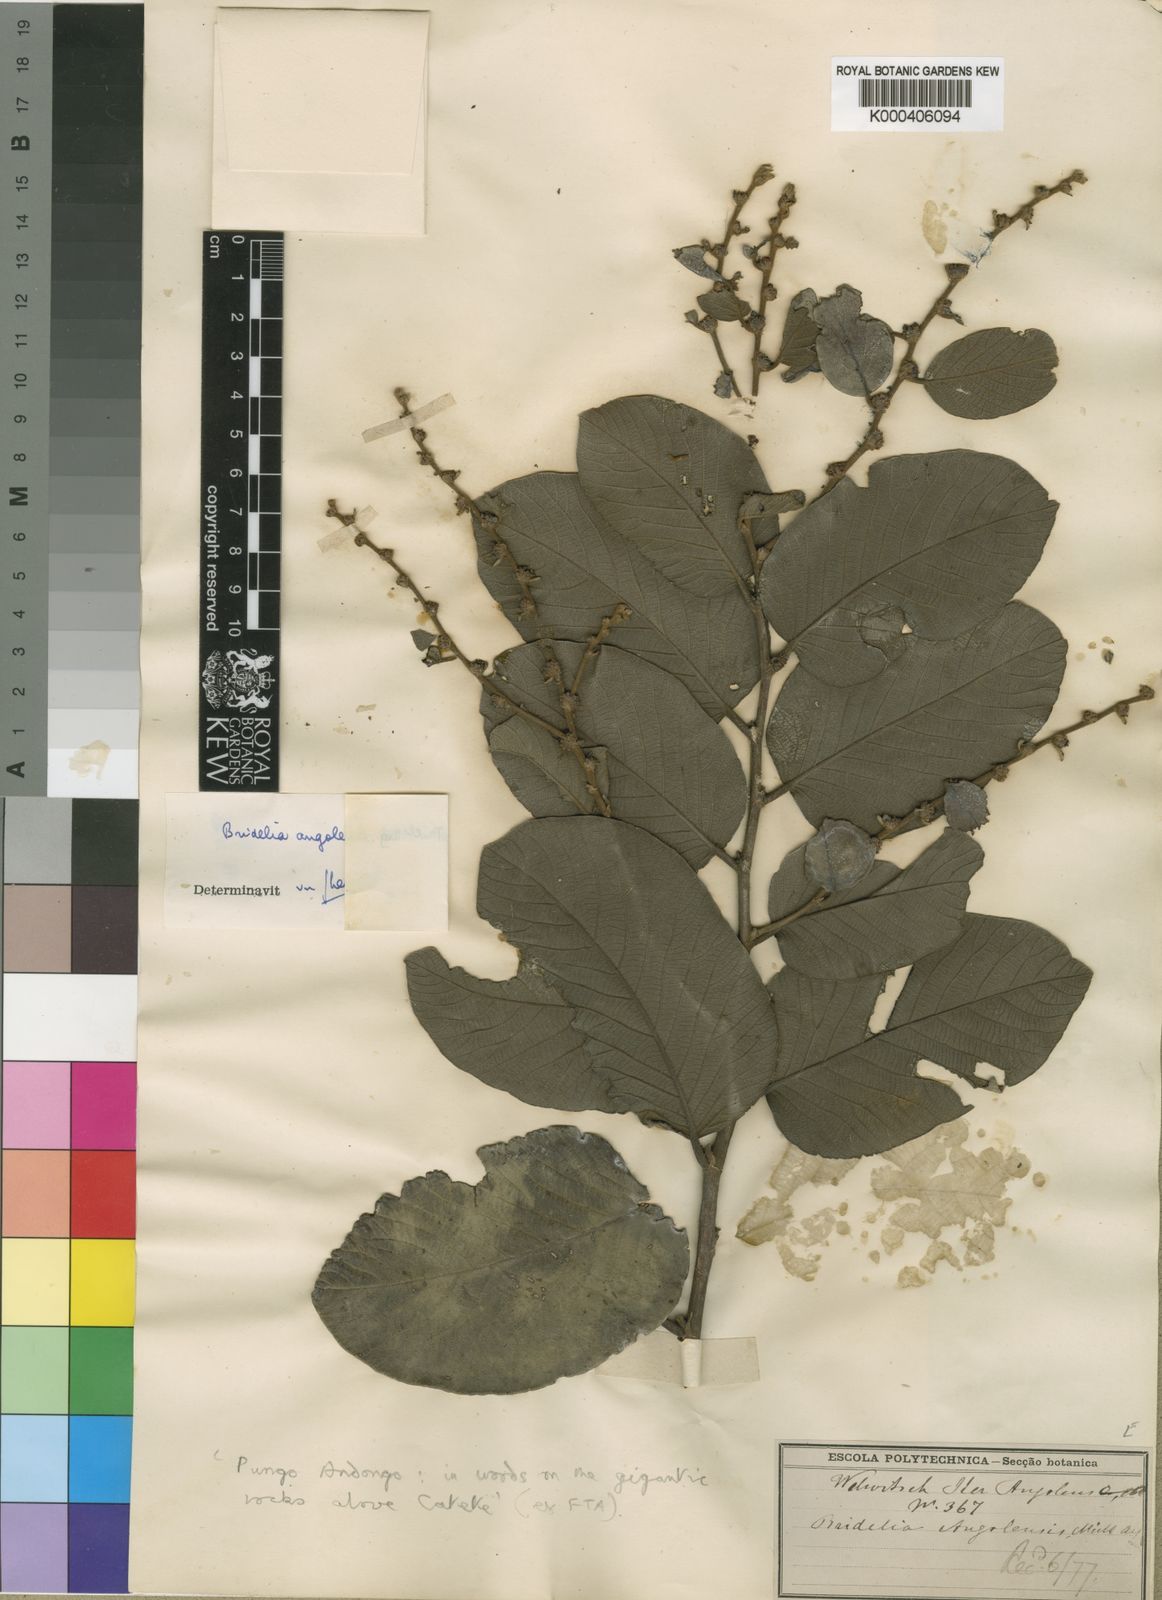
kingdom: Plantae
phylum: Tracheophyta
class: Magnoliopsida
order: Malpighiales
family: Phyllanthaceae
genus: Bridelia
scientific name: Bridelia
